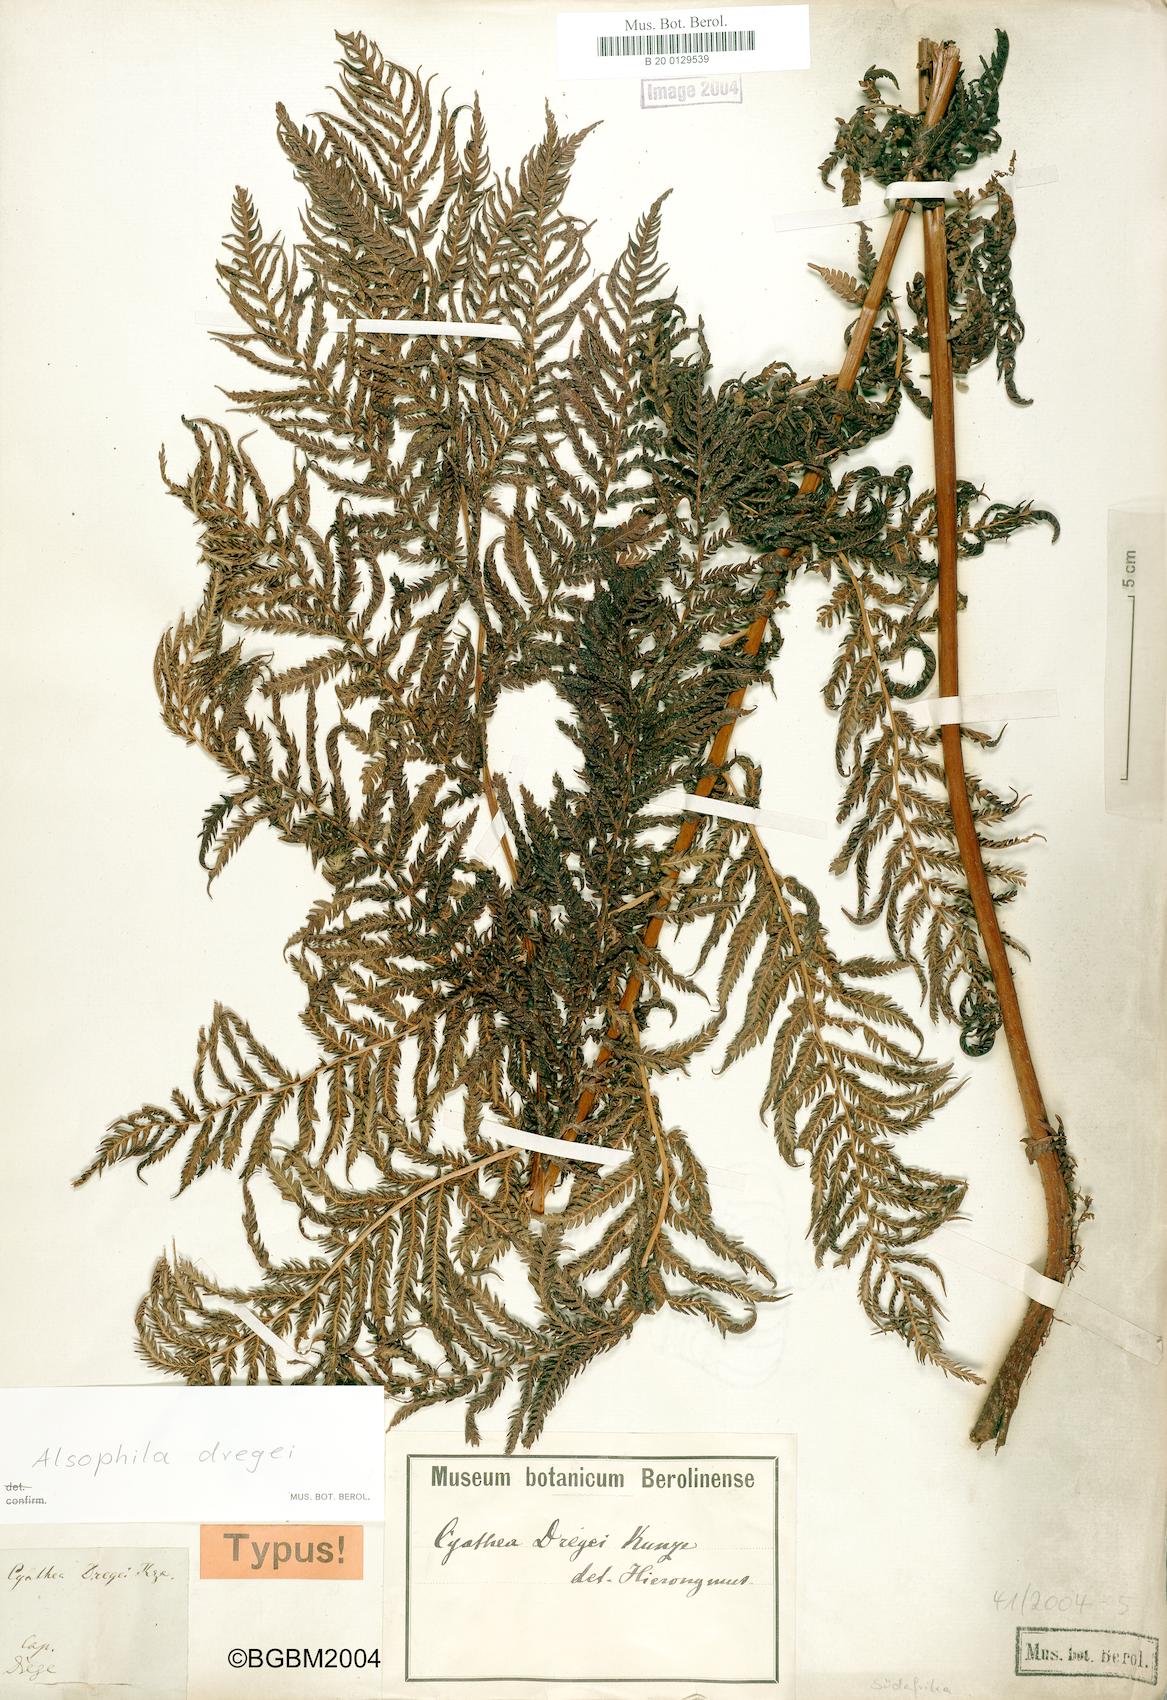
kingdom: Plantae
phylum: Tracheophyta
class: Polypodiopsida
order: Cyatheales
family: Cyatheaceae
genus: Alsophila
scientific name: Alsophila dregei
